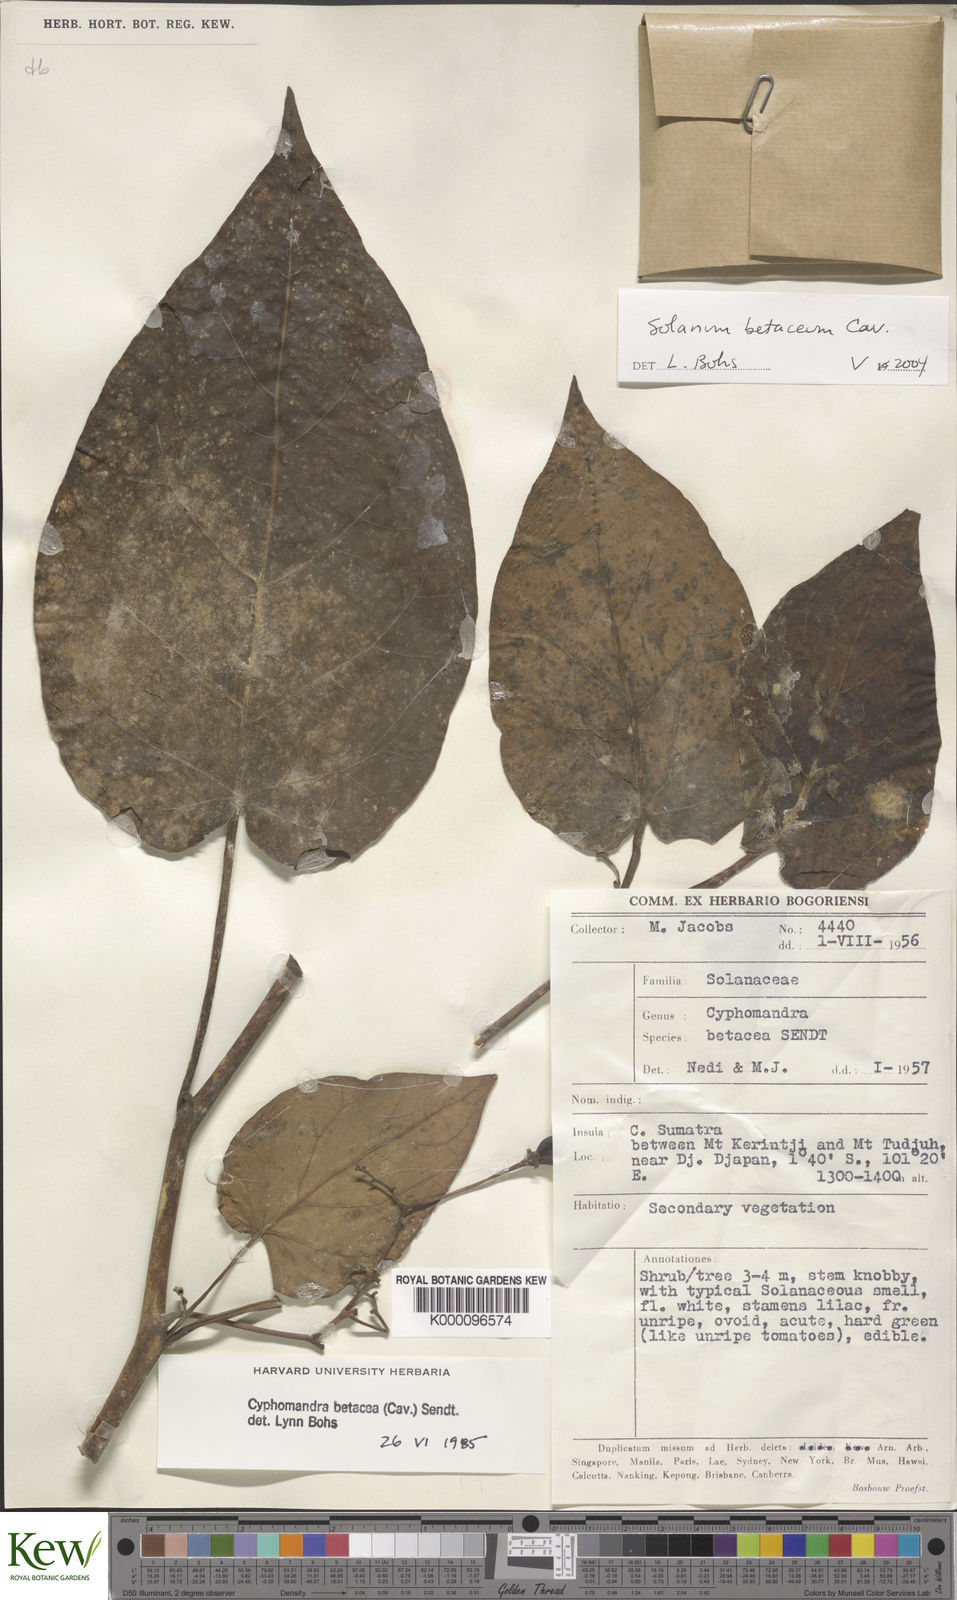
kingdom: Plantae
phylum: Tracheophyta
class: Magnoliopsida
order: Solanales
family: Solanaceae
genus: Solanum
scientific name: Solanum betaceum
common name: Tamarillo
